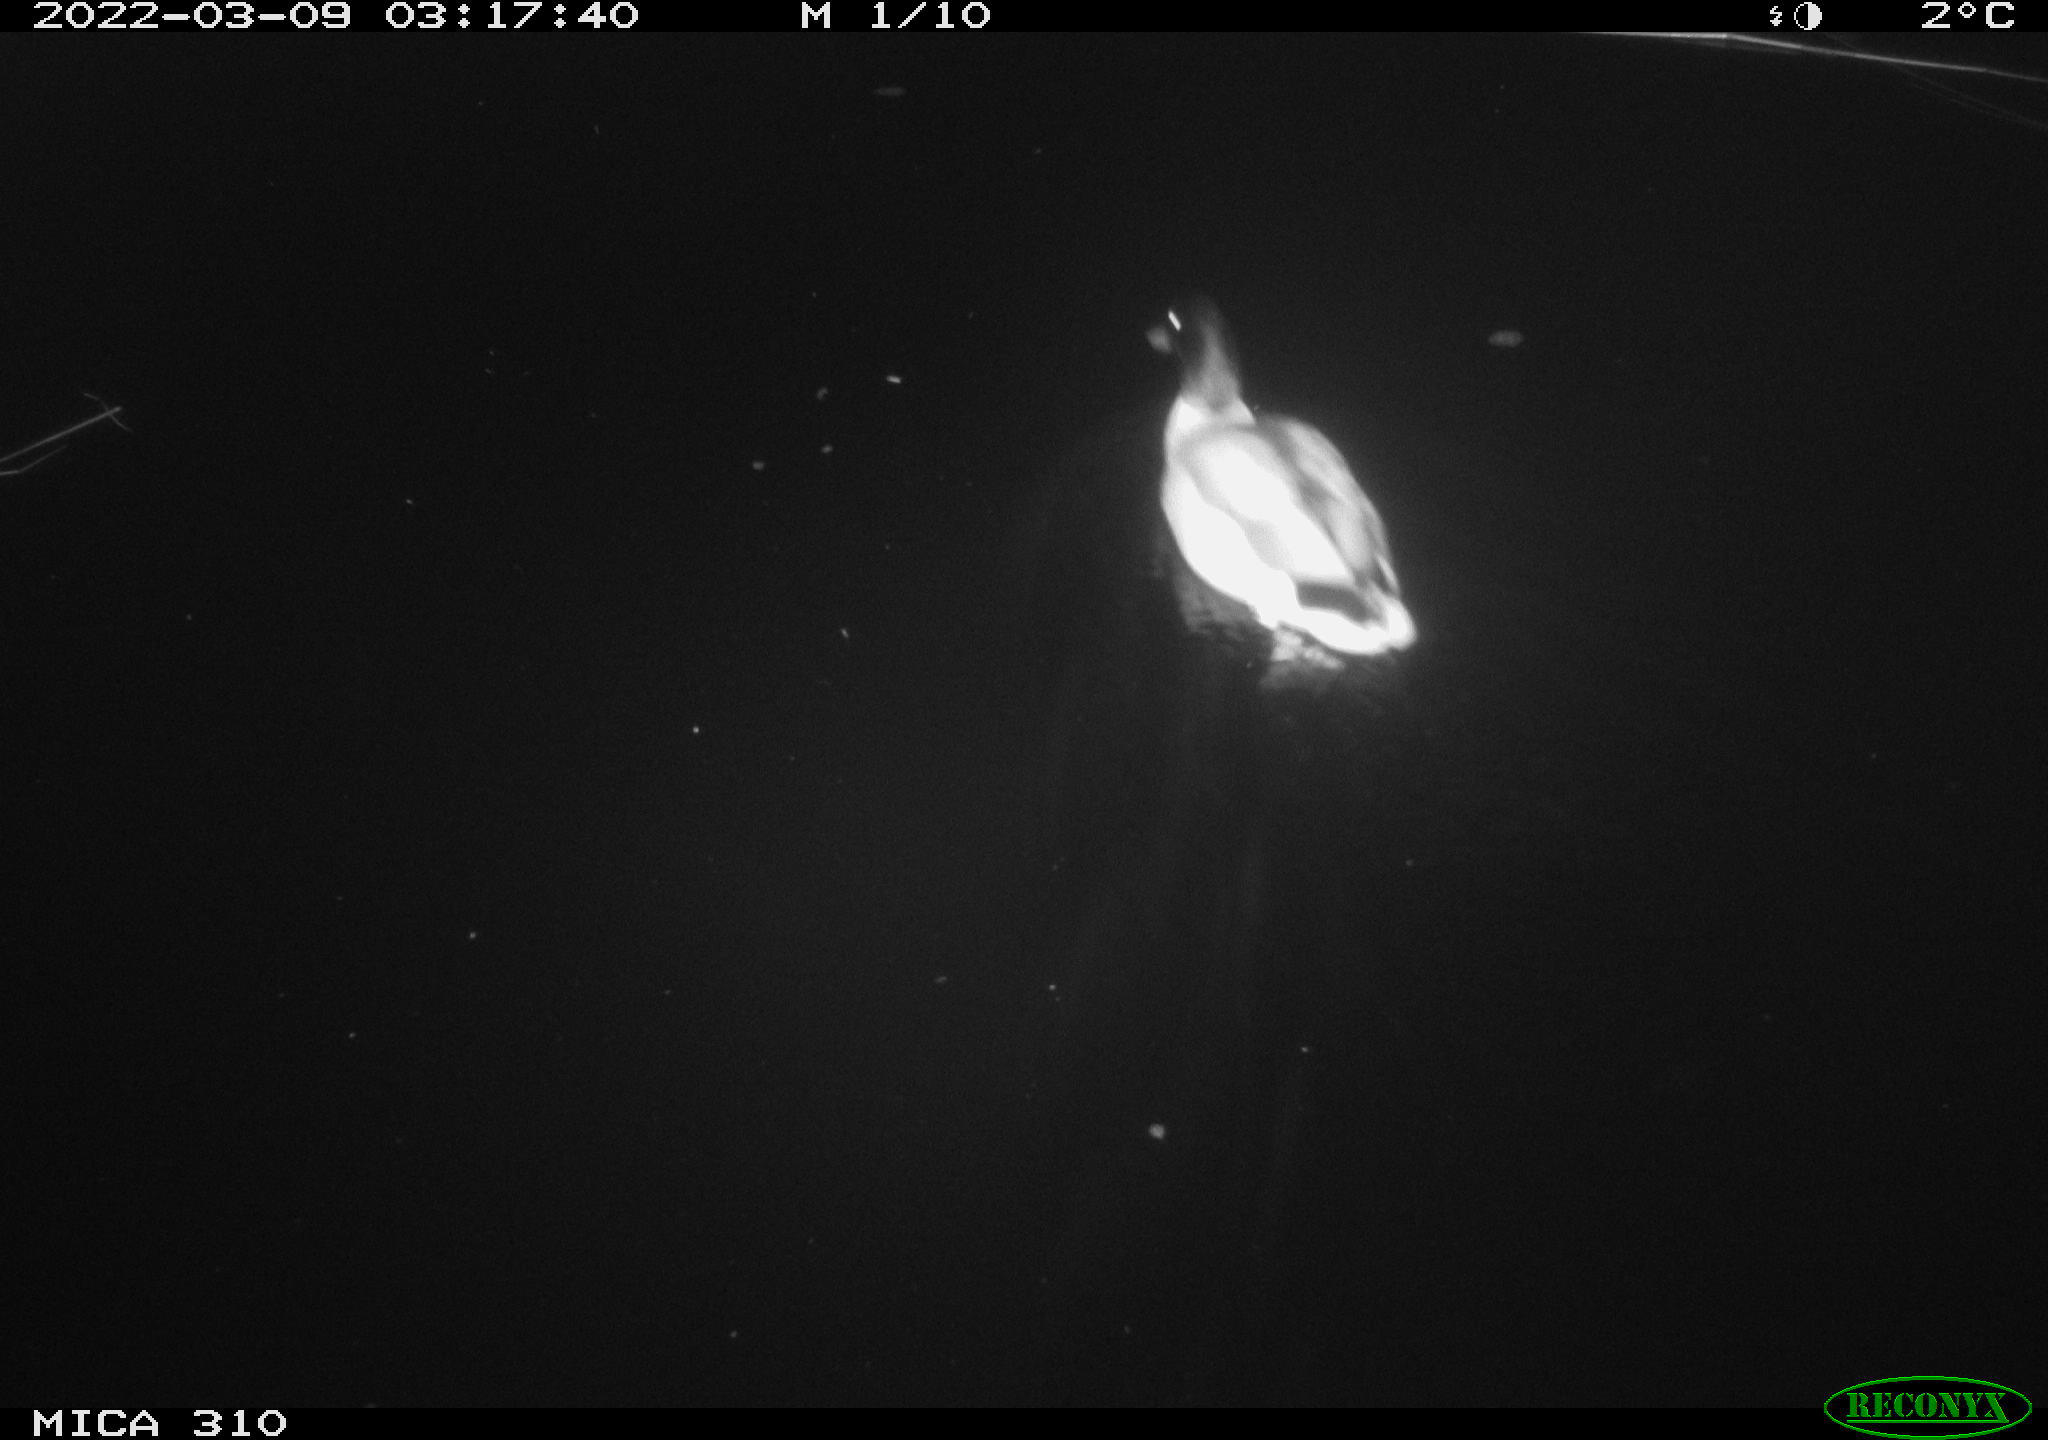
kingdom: Animalia
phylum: Chordata
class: Aves
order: Anseriformes
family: Anatidae
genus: Anas
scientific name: Anas platyrhynchos
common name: Mallard
